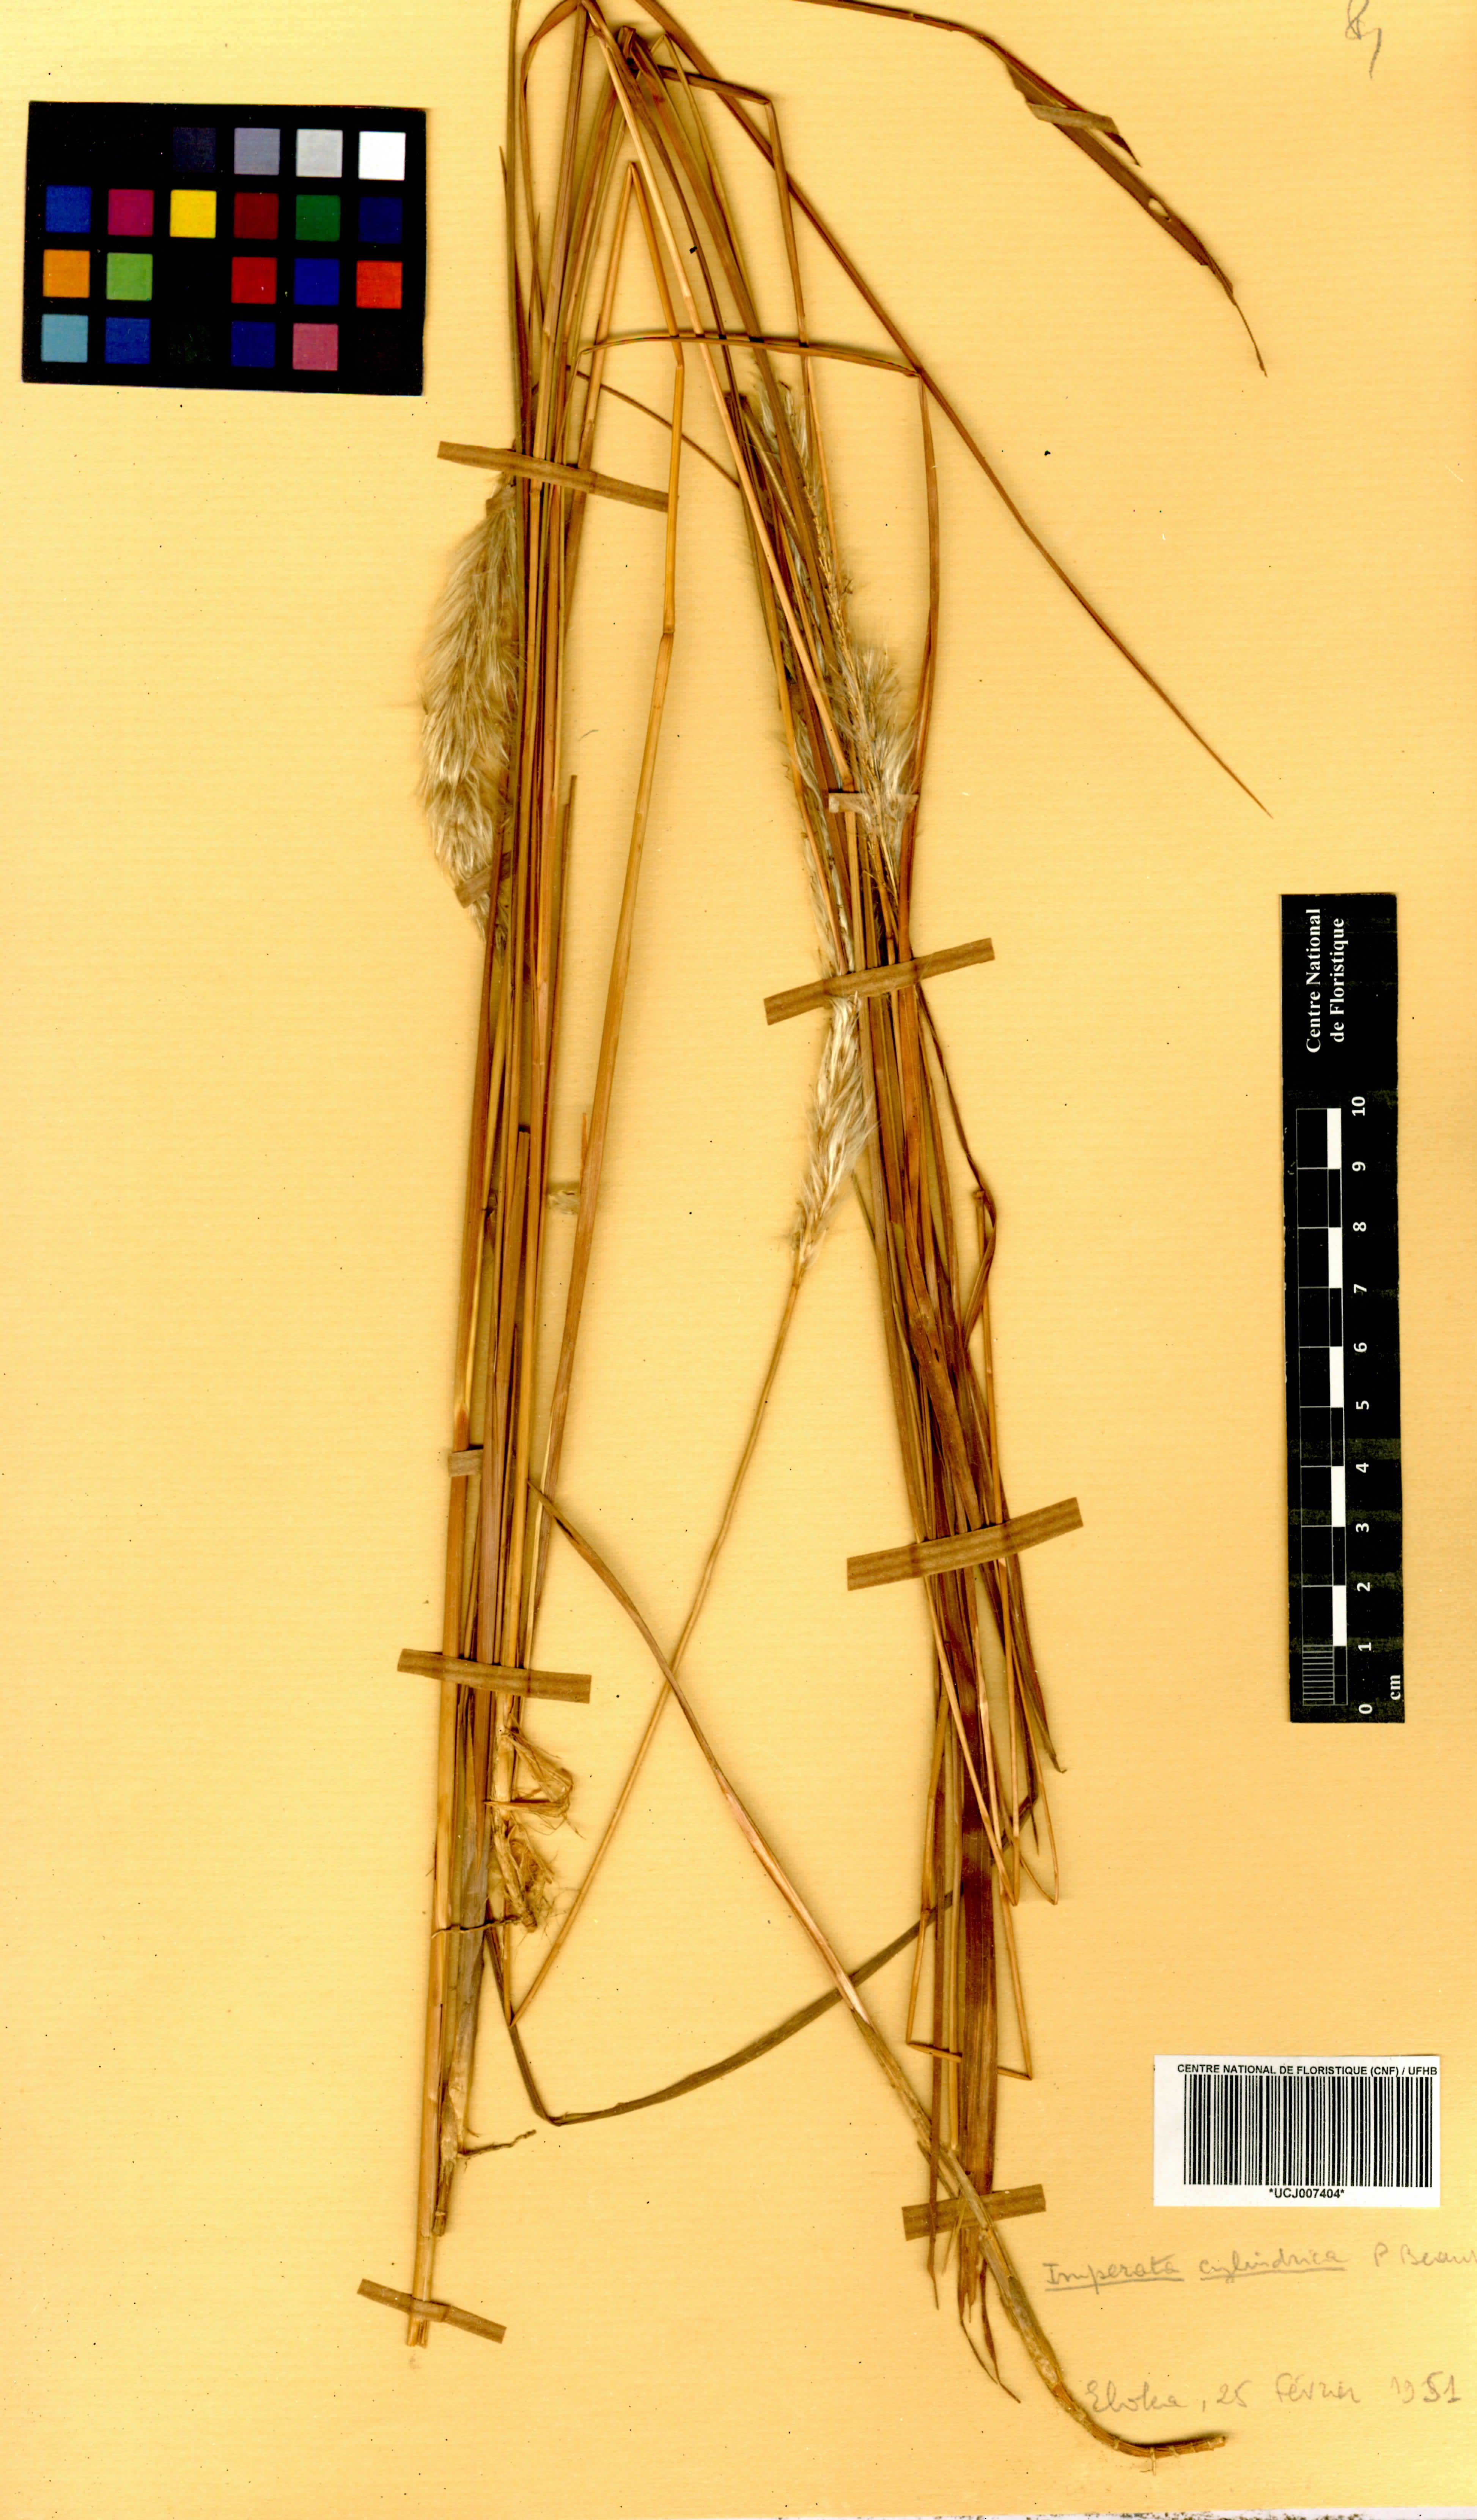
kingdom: Plantae
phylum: Tracheophyta
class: Liliopsida
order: Poales
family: Poaceae
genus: Imperata
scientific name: Imperata cylindrica
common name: Cogongrass
